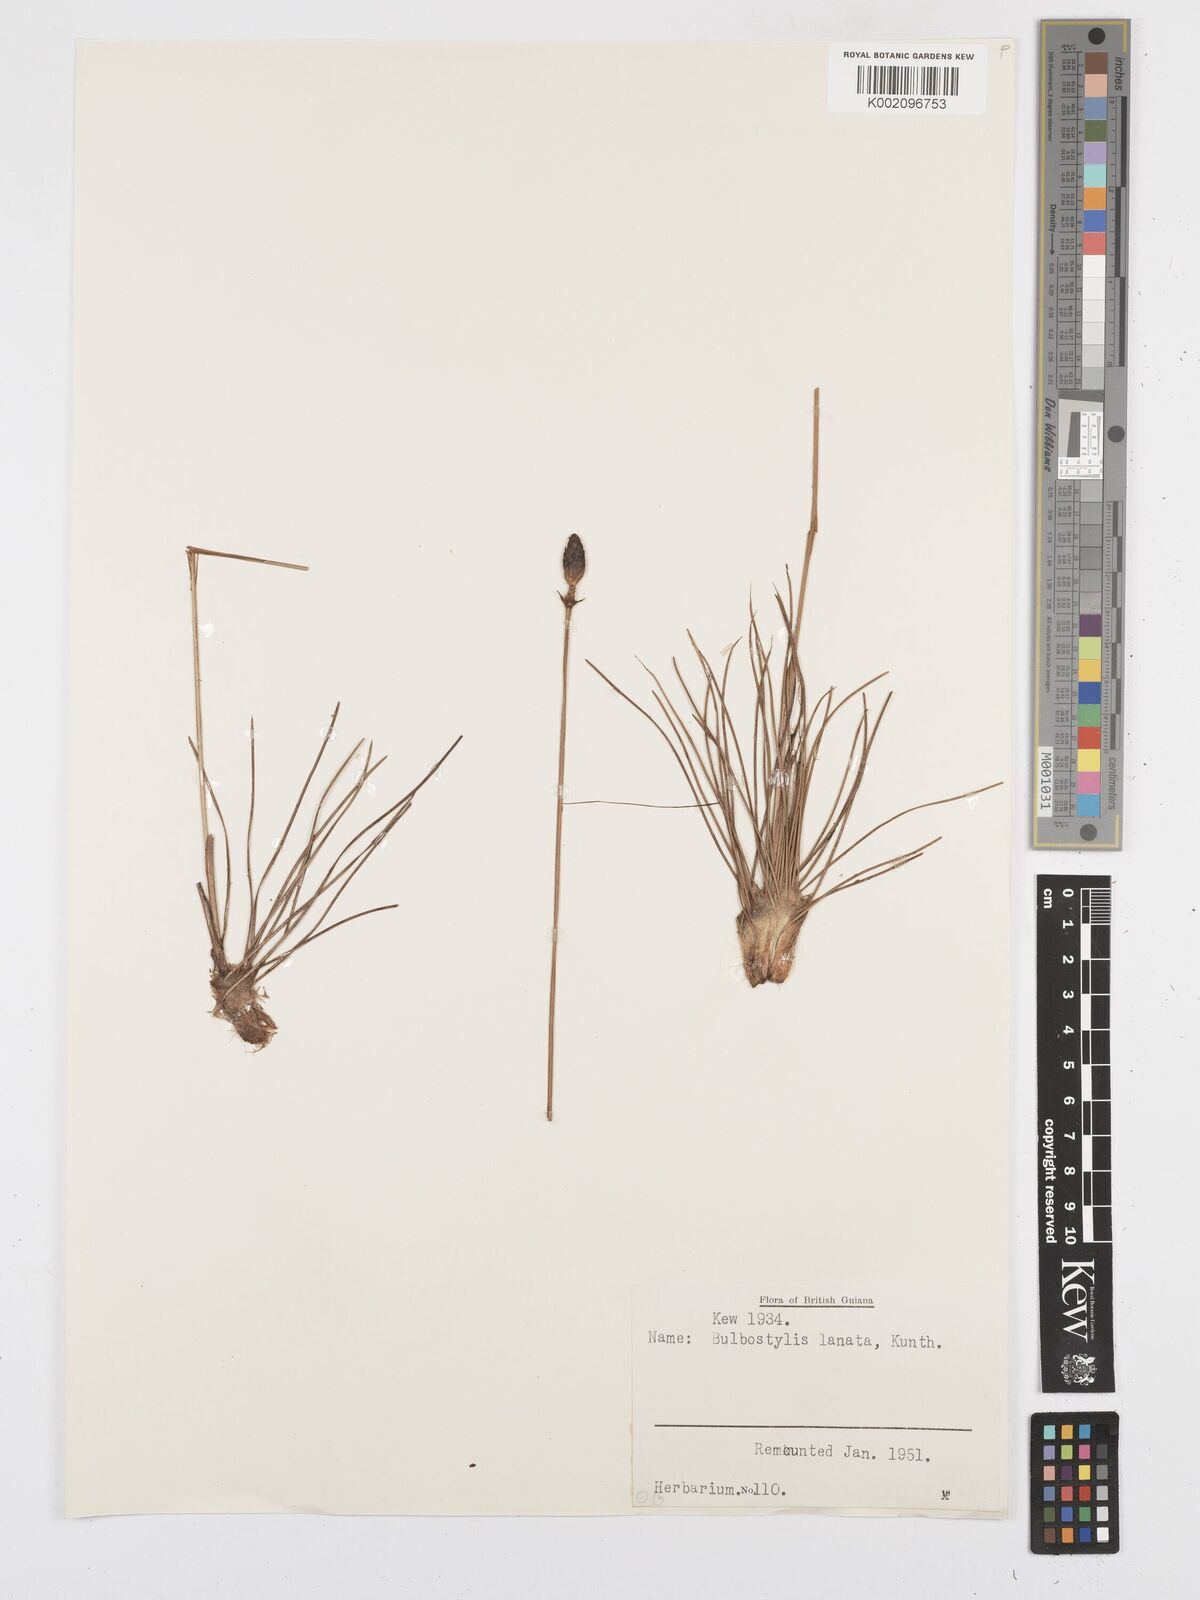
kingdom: Plantae
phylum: Tracheophyta
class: Liliopsida
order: Poales
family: Cyperaceae
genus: Bulbostylis
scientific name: Bulbostylis lanata
